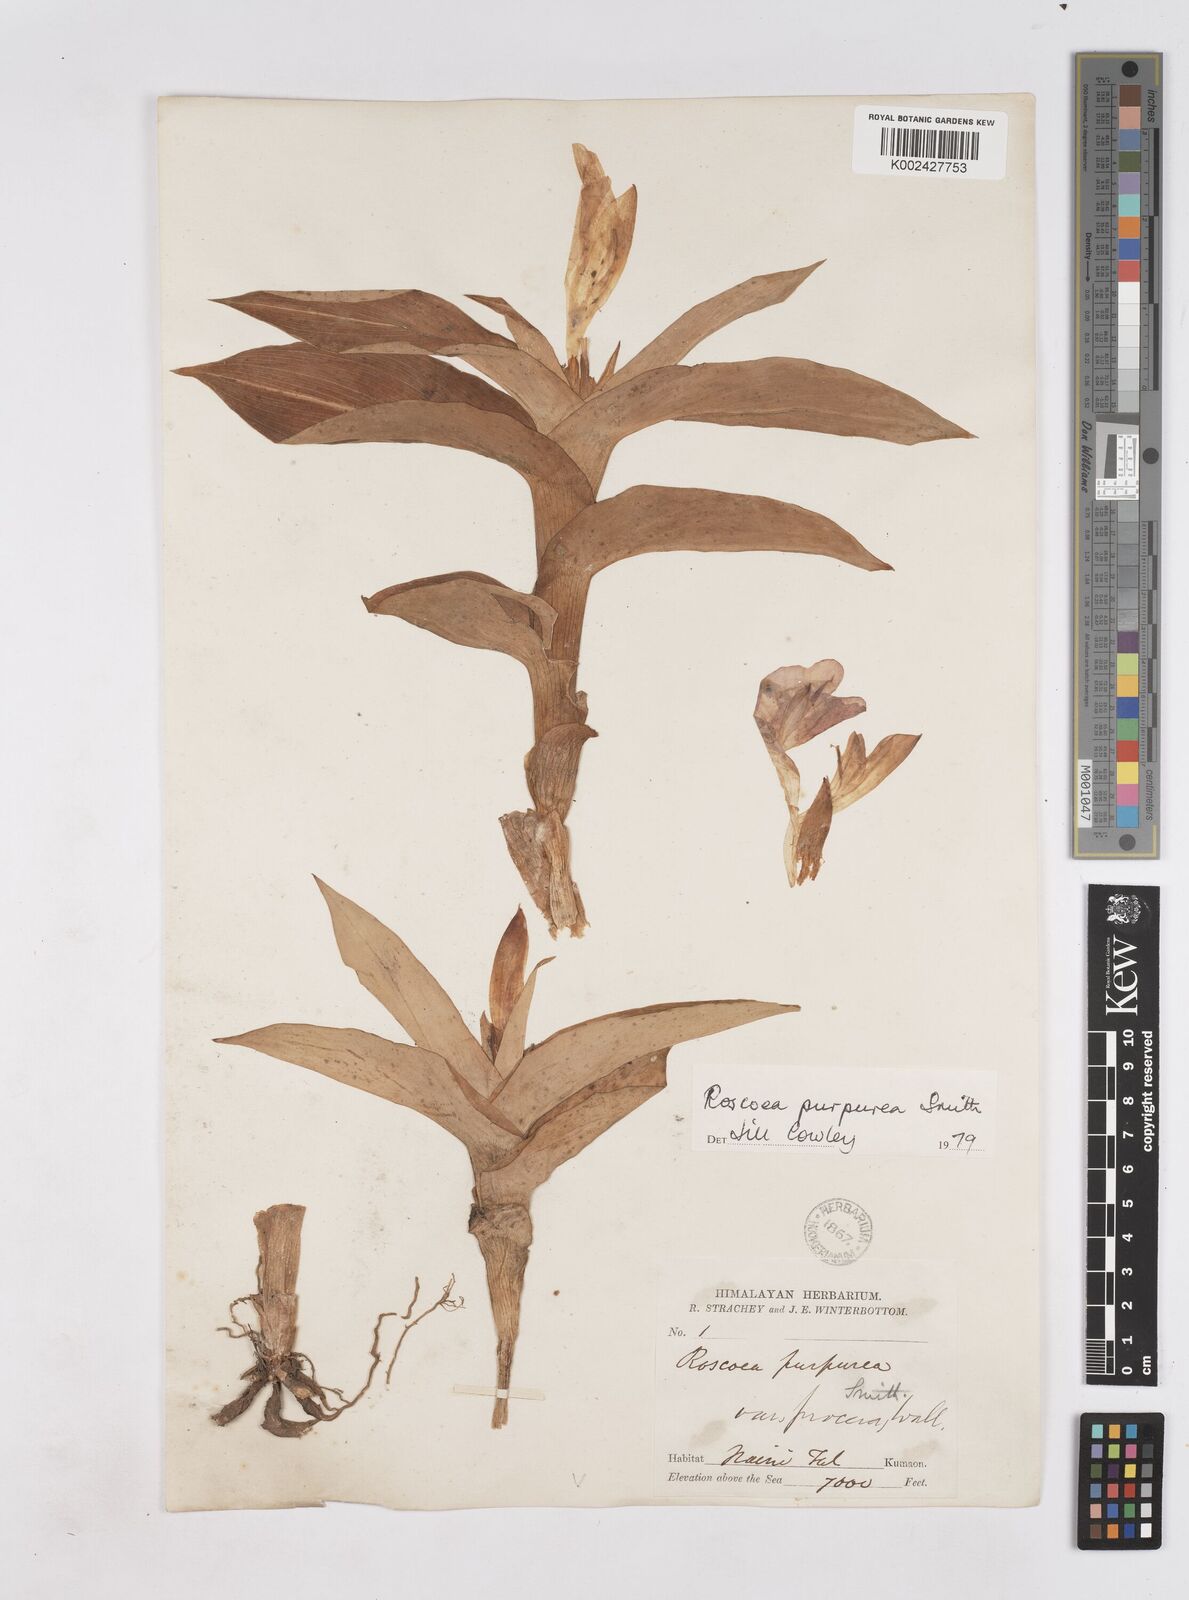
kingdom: Plantae
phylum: Tracheophyta
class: Liliopsida
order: Zingiberales
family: Zingiberaceae
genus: Roscoea
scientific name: Roscoea purpurea
